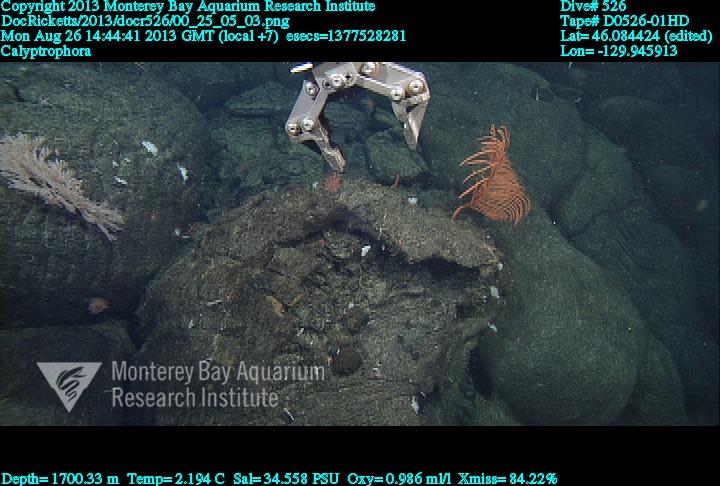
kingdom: Animalia
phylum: Cnidaria
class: Anthozoa
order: Scleralcyonacea
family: Primnoidae
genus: Calyptrophora
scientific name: Calyptrophora
